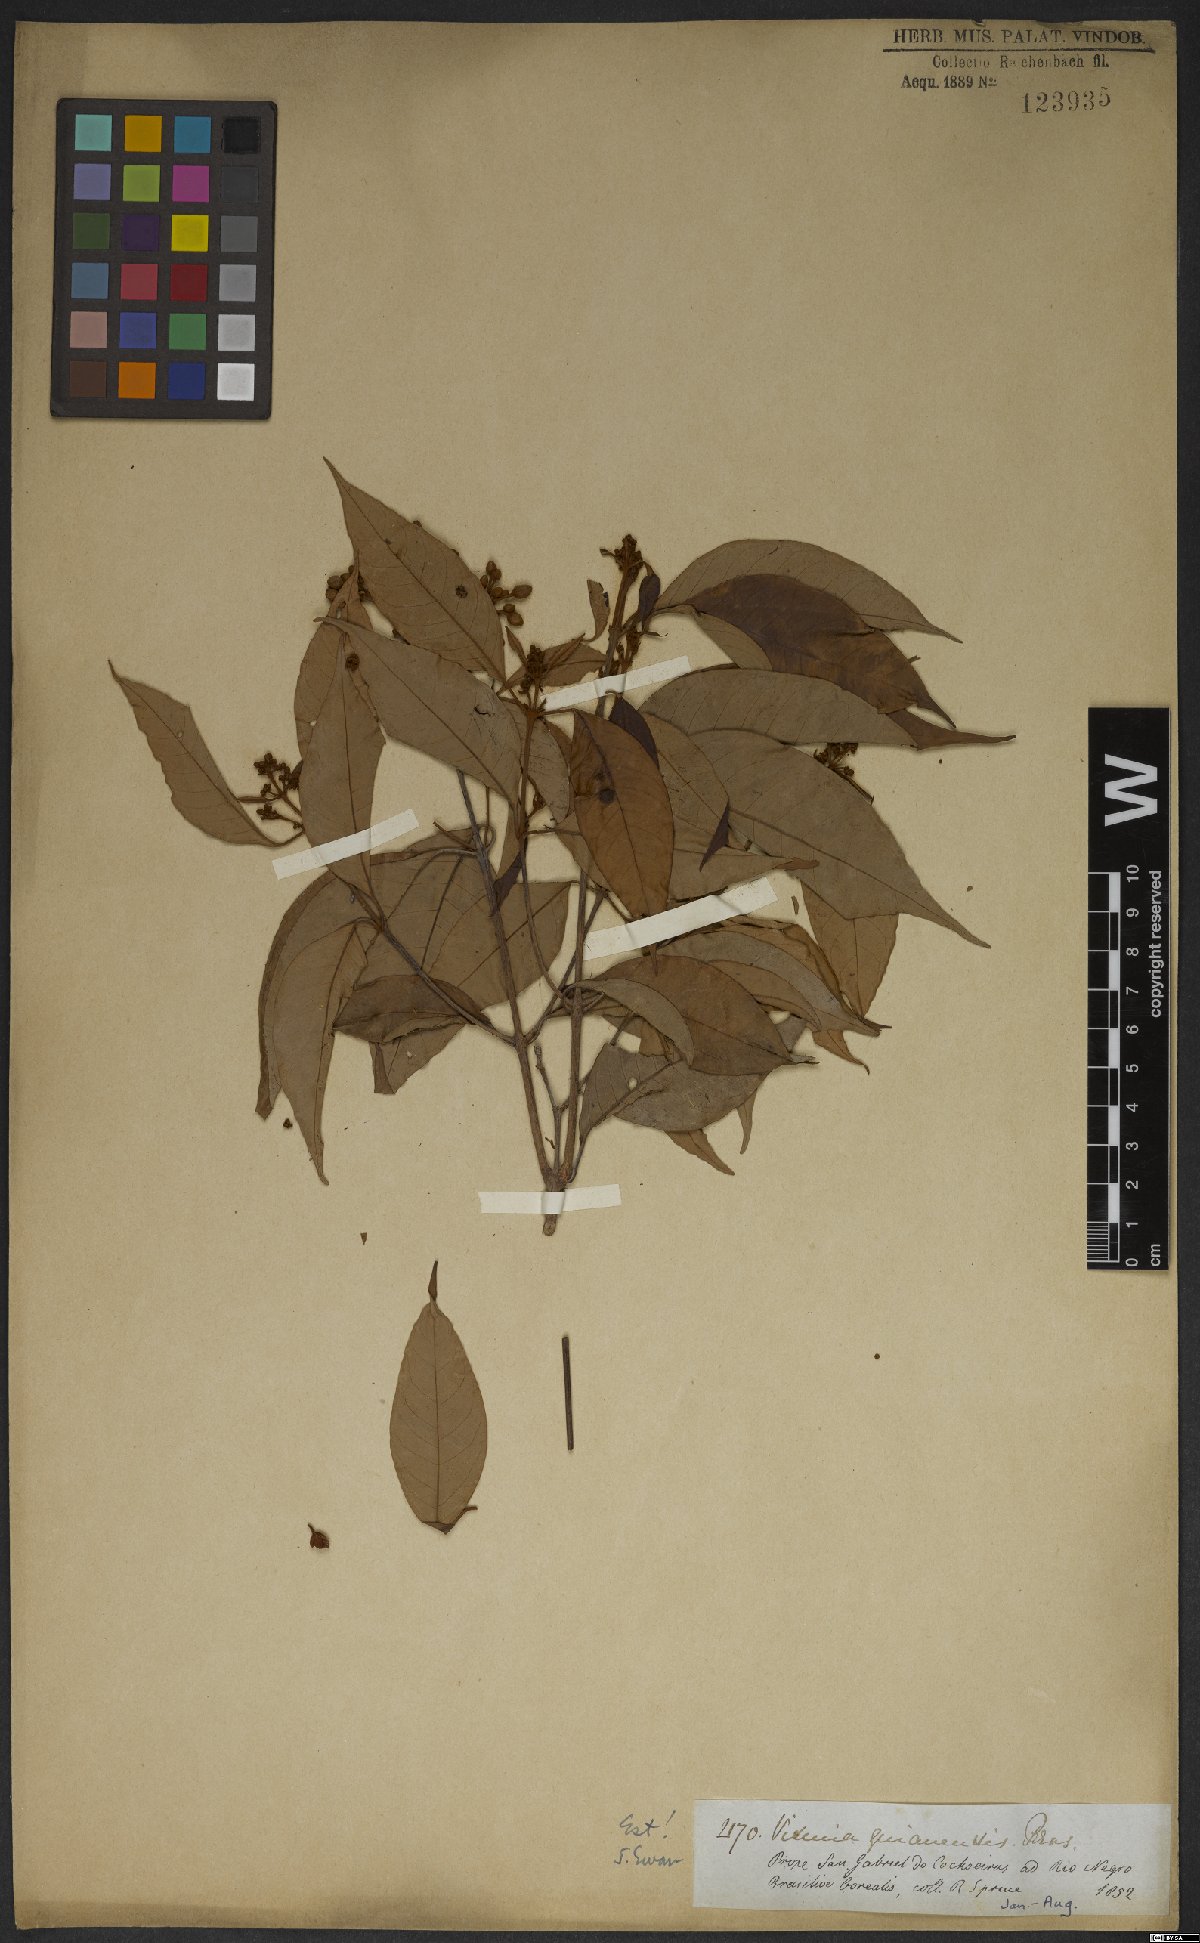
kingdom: Plantae
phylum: Tracheophyta
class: Magnoliopsida
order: Malpighiales
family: Hypericaceae
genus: Vismia
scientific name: Vismia guianensis
